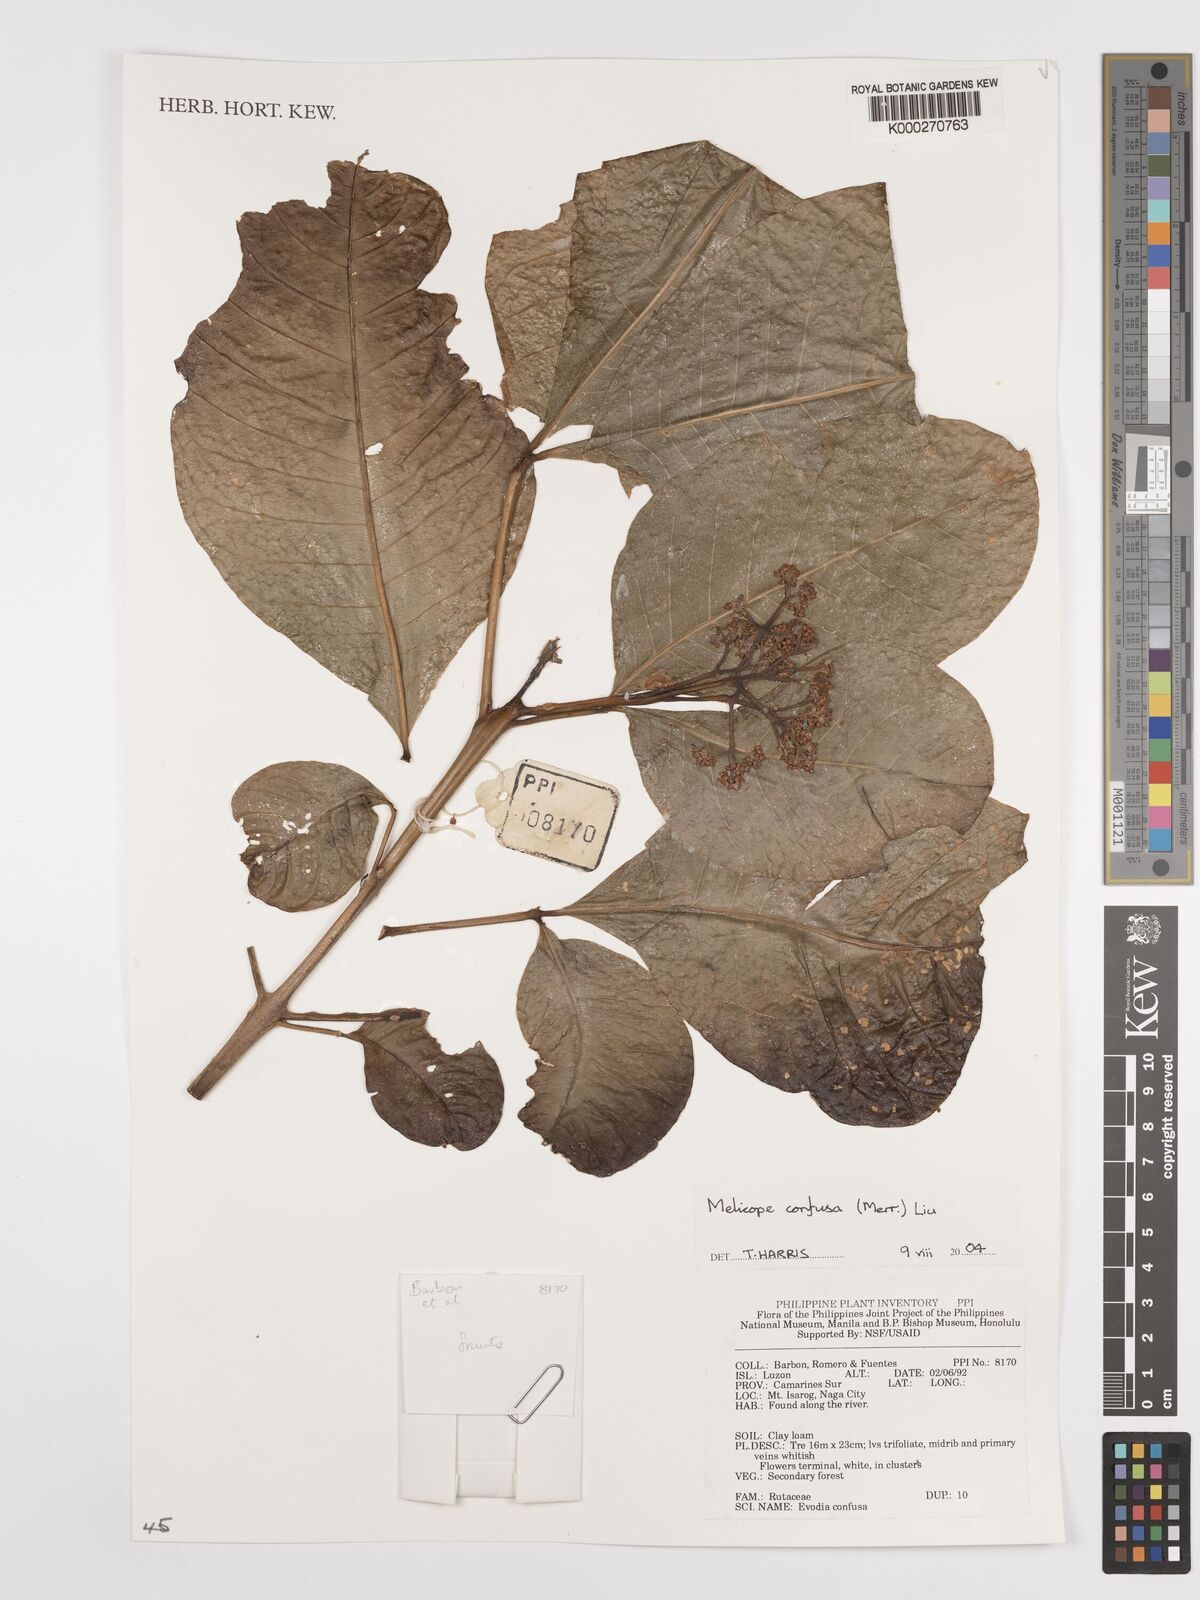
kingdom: Plantae
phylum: Tracheophyta
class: Magnoliopsida
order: Sapindales
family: Rutaceae
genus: Melicope
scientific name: Melicope
